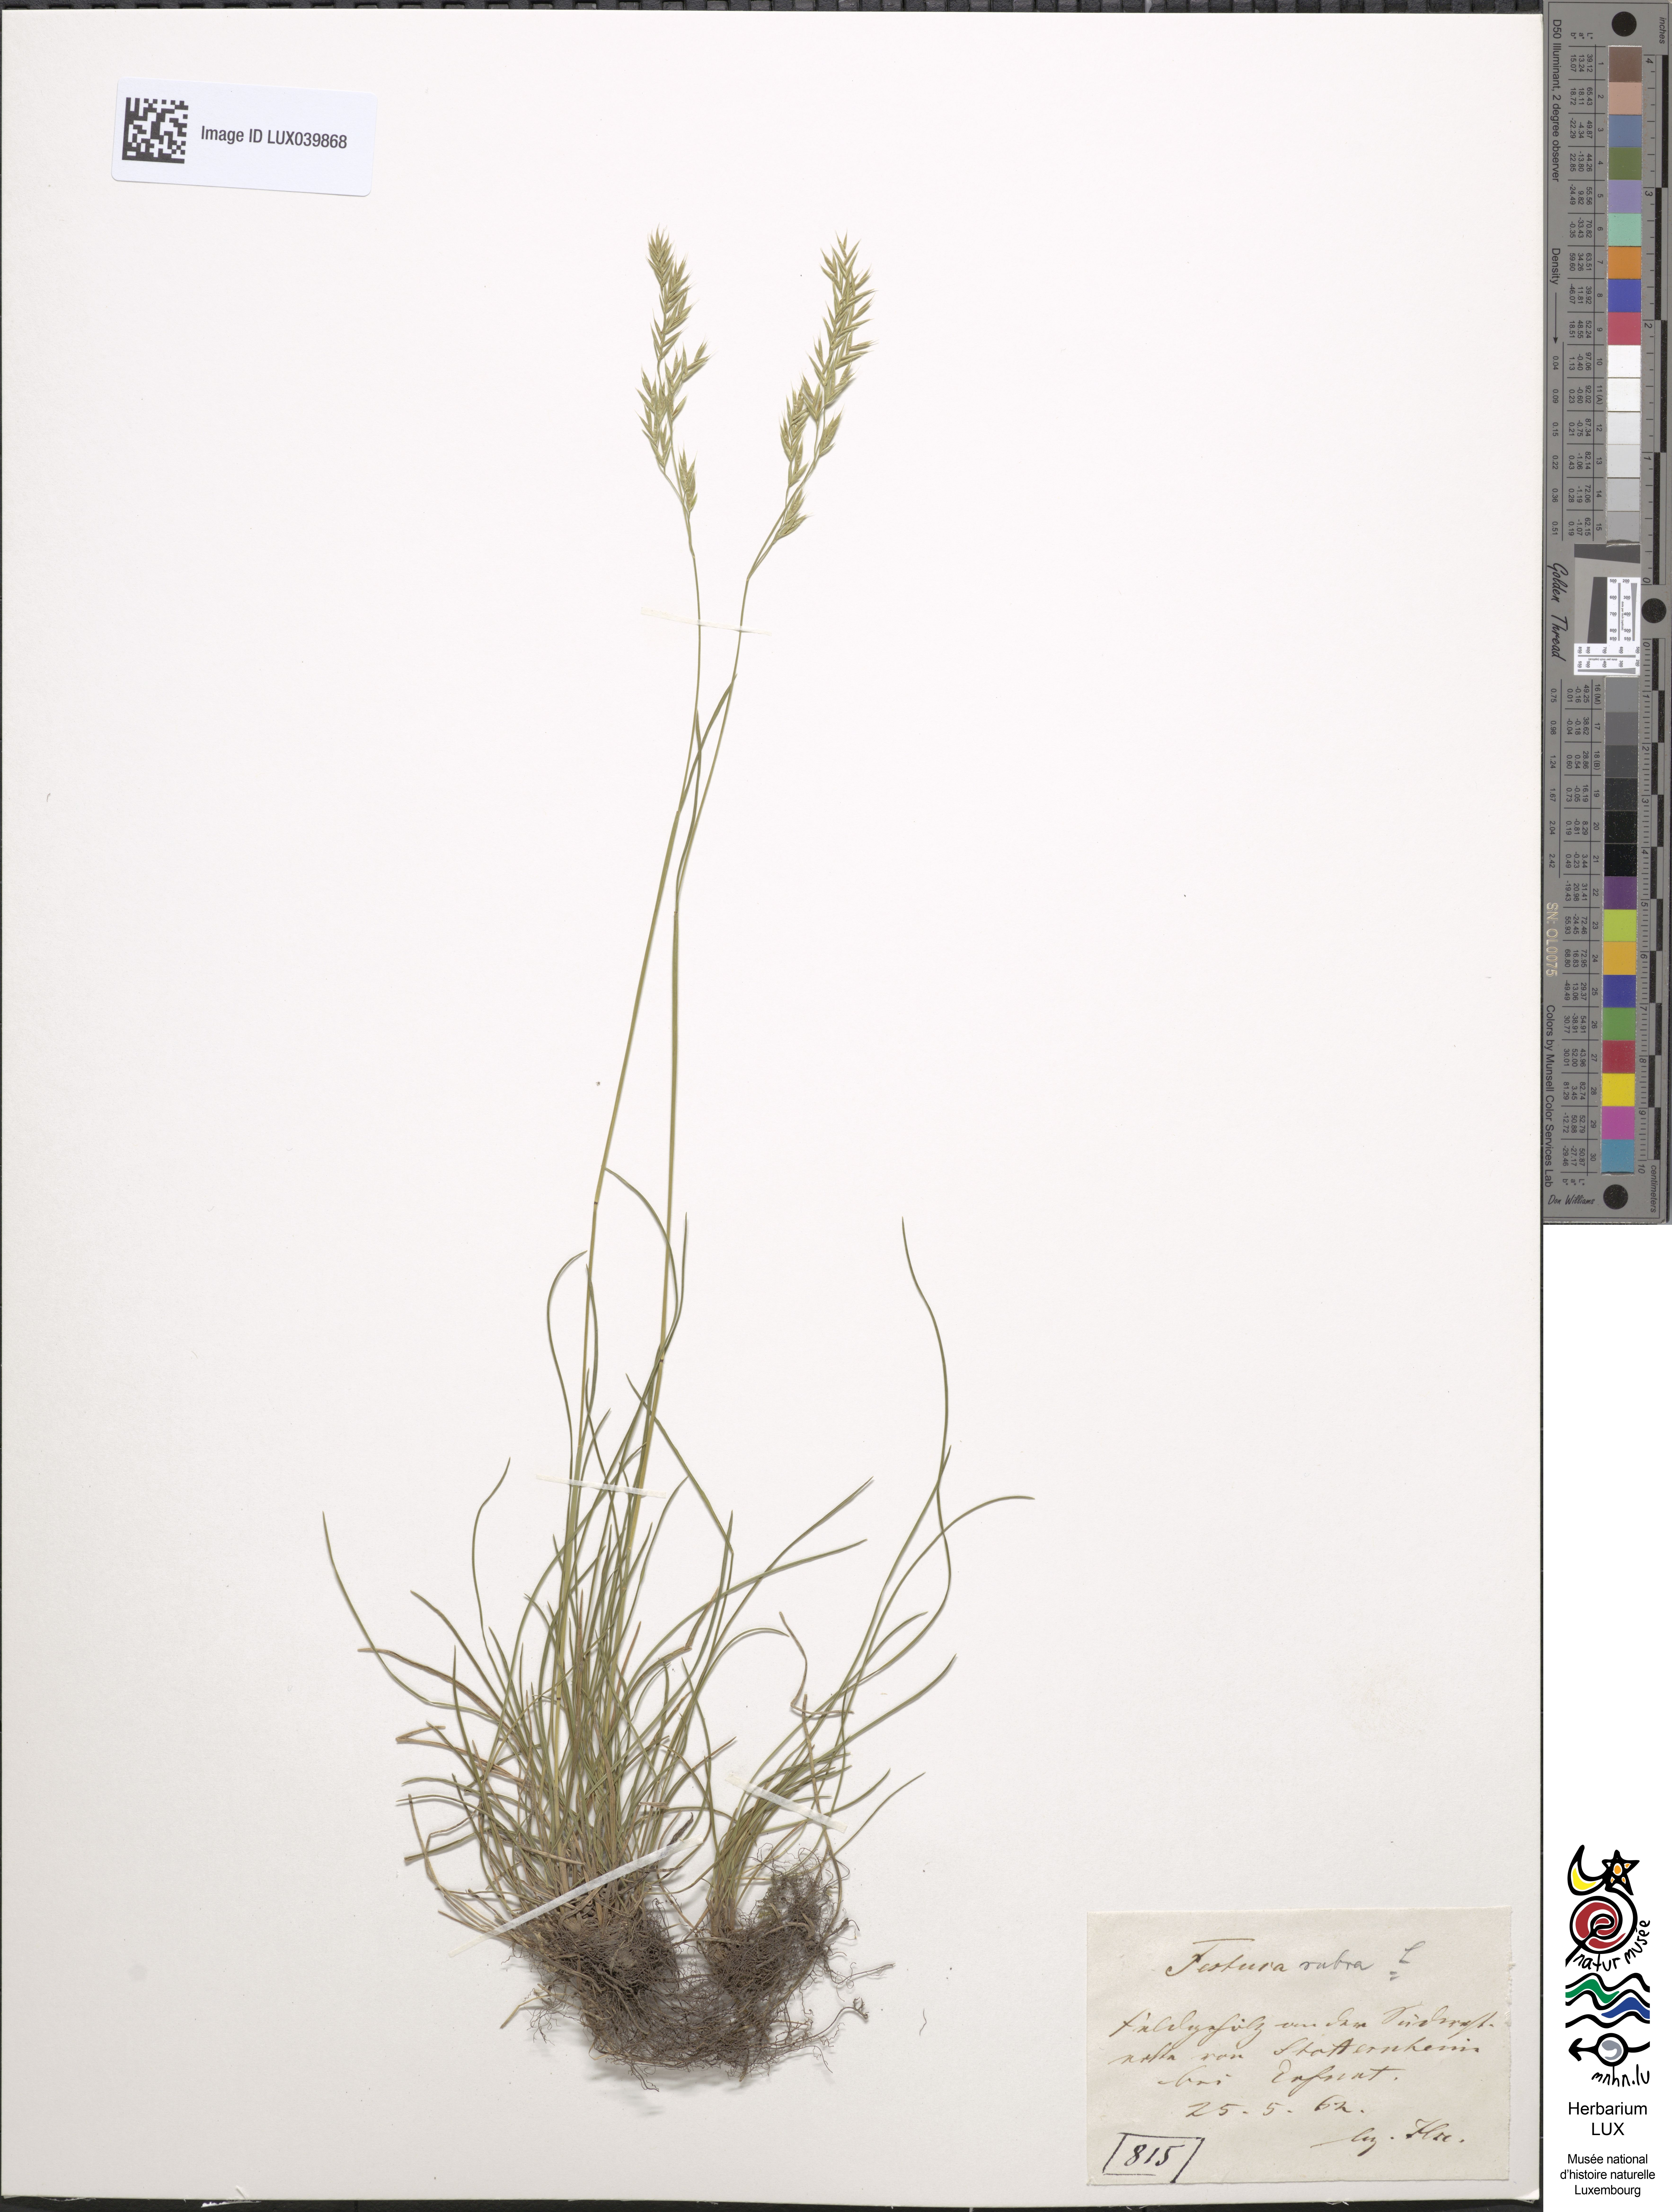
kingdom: Plantae
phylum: Tracheophyta
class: Liliopsida
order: Poales
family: Poaceae
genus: Festuca
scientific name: Festuca rubra
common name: Red fescue
